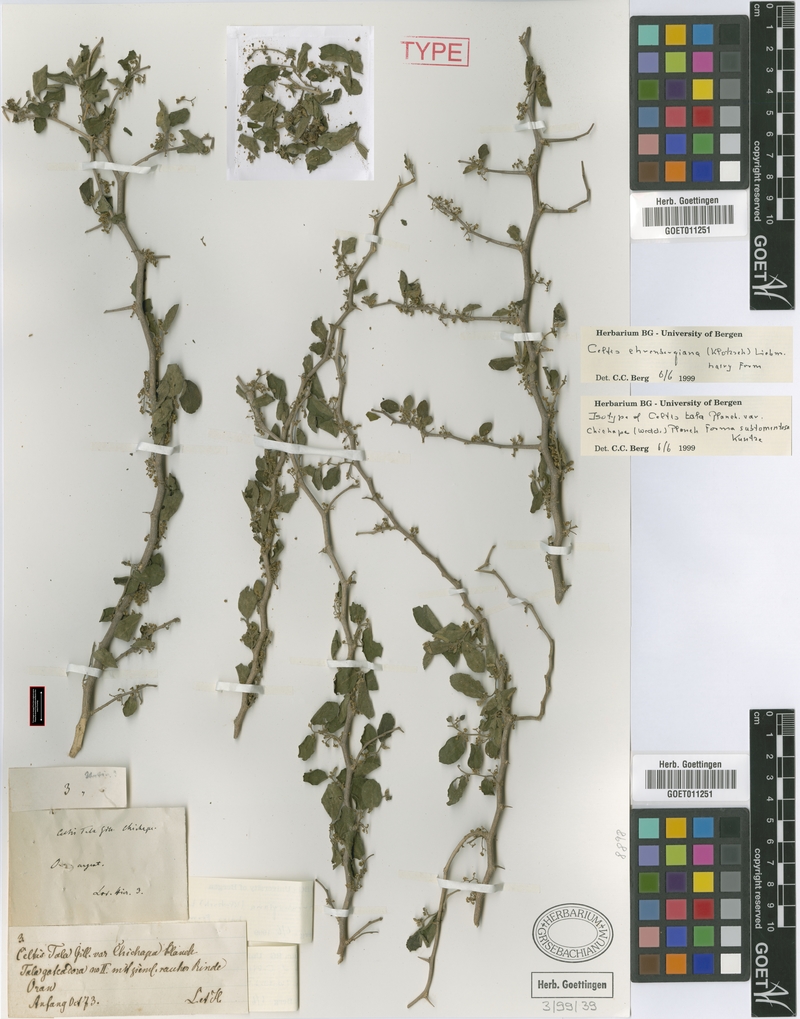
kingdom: Plantae
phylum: Tracheophyta
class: Magnoliopsida
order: Rosales
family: Cannabaceae
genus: Celtis
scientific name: Celtis iguanaea
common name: Iguana hackberry
